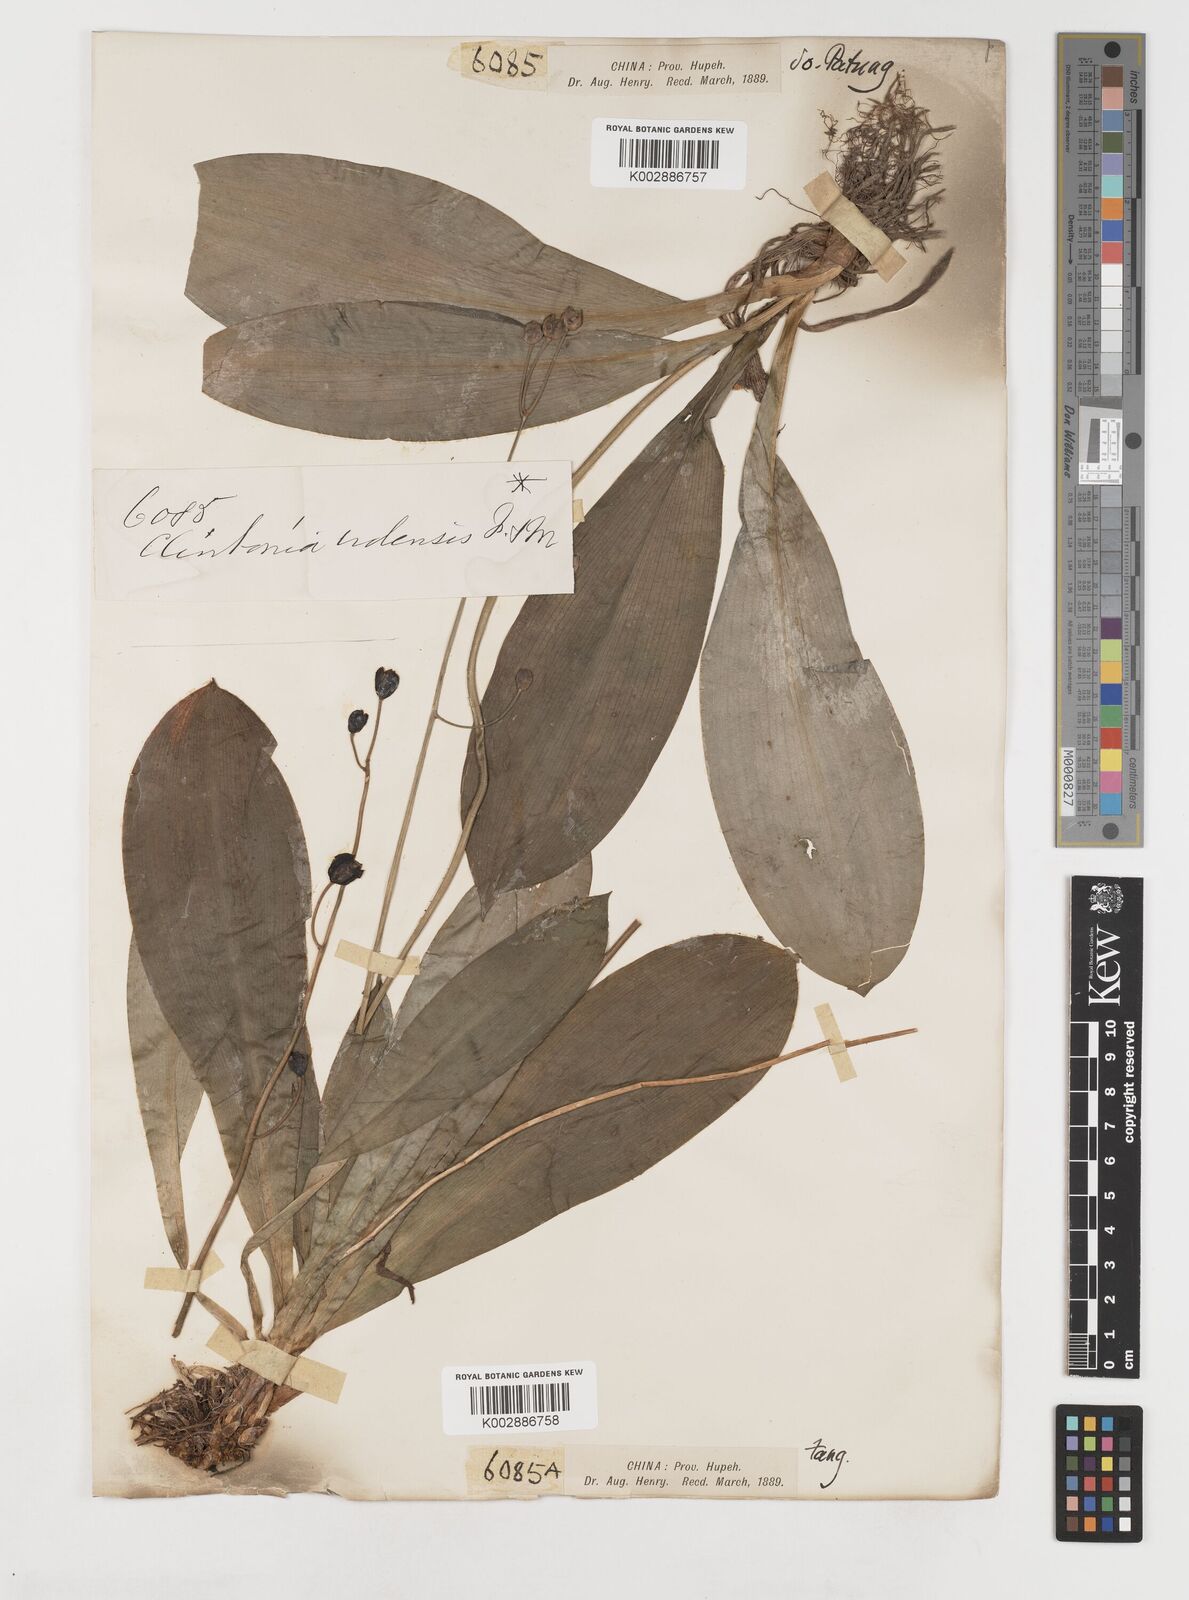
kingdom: Plantae
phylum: Tracheophyta
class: Liliopsida
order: Liliales
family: Liliaceae
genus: Clintonia
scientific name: Clintonia udensis
